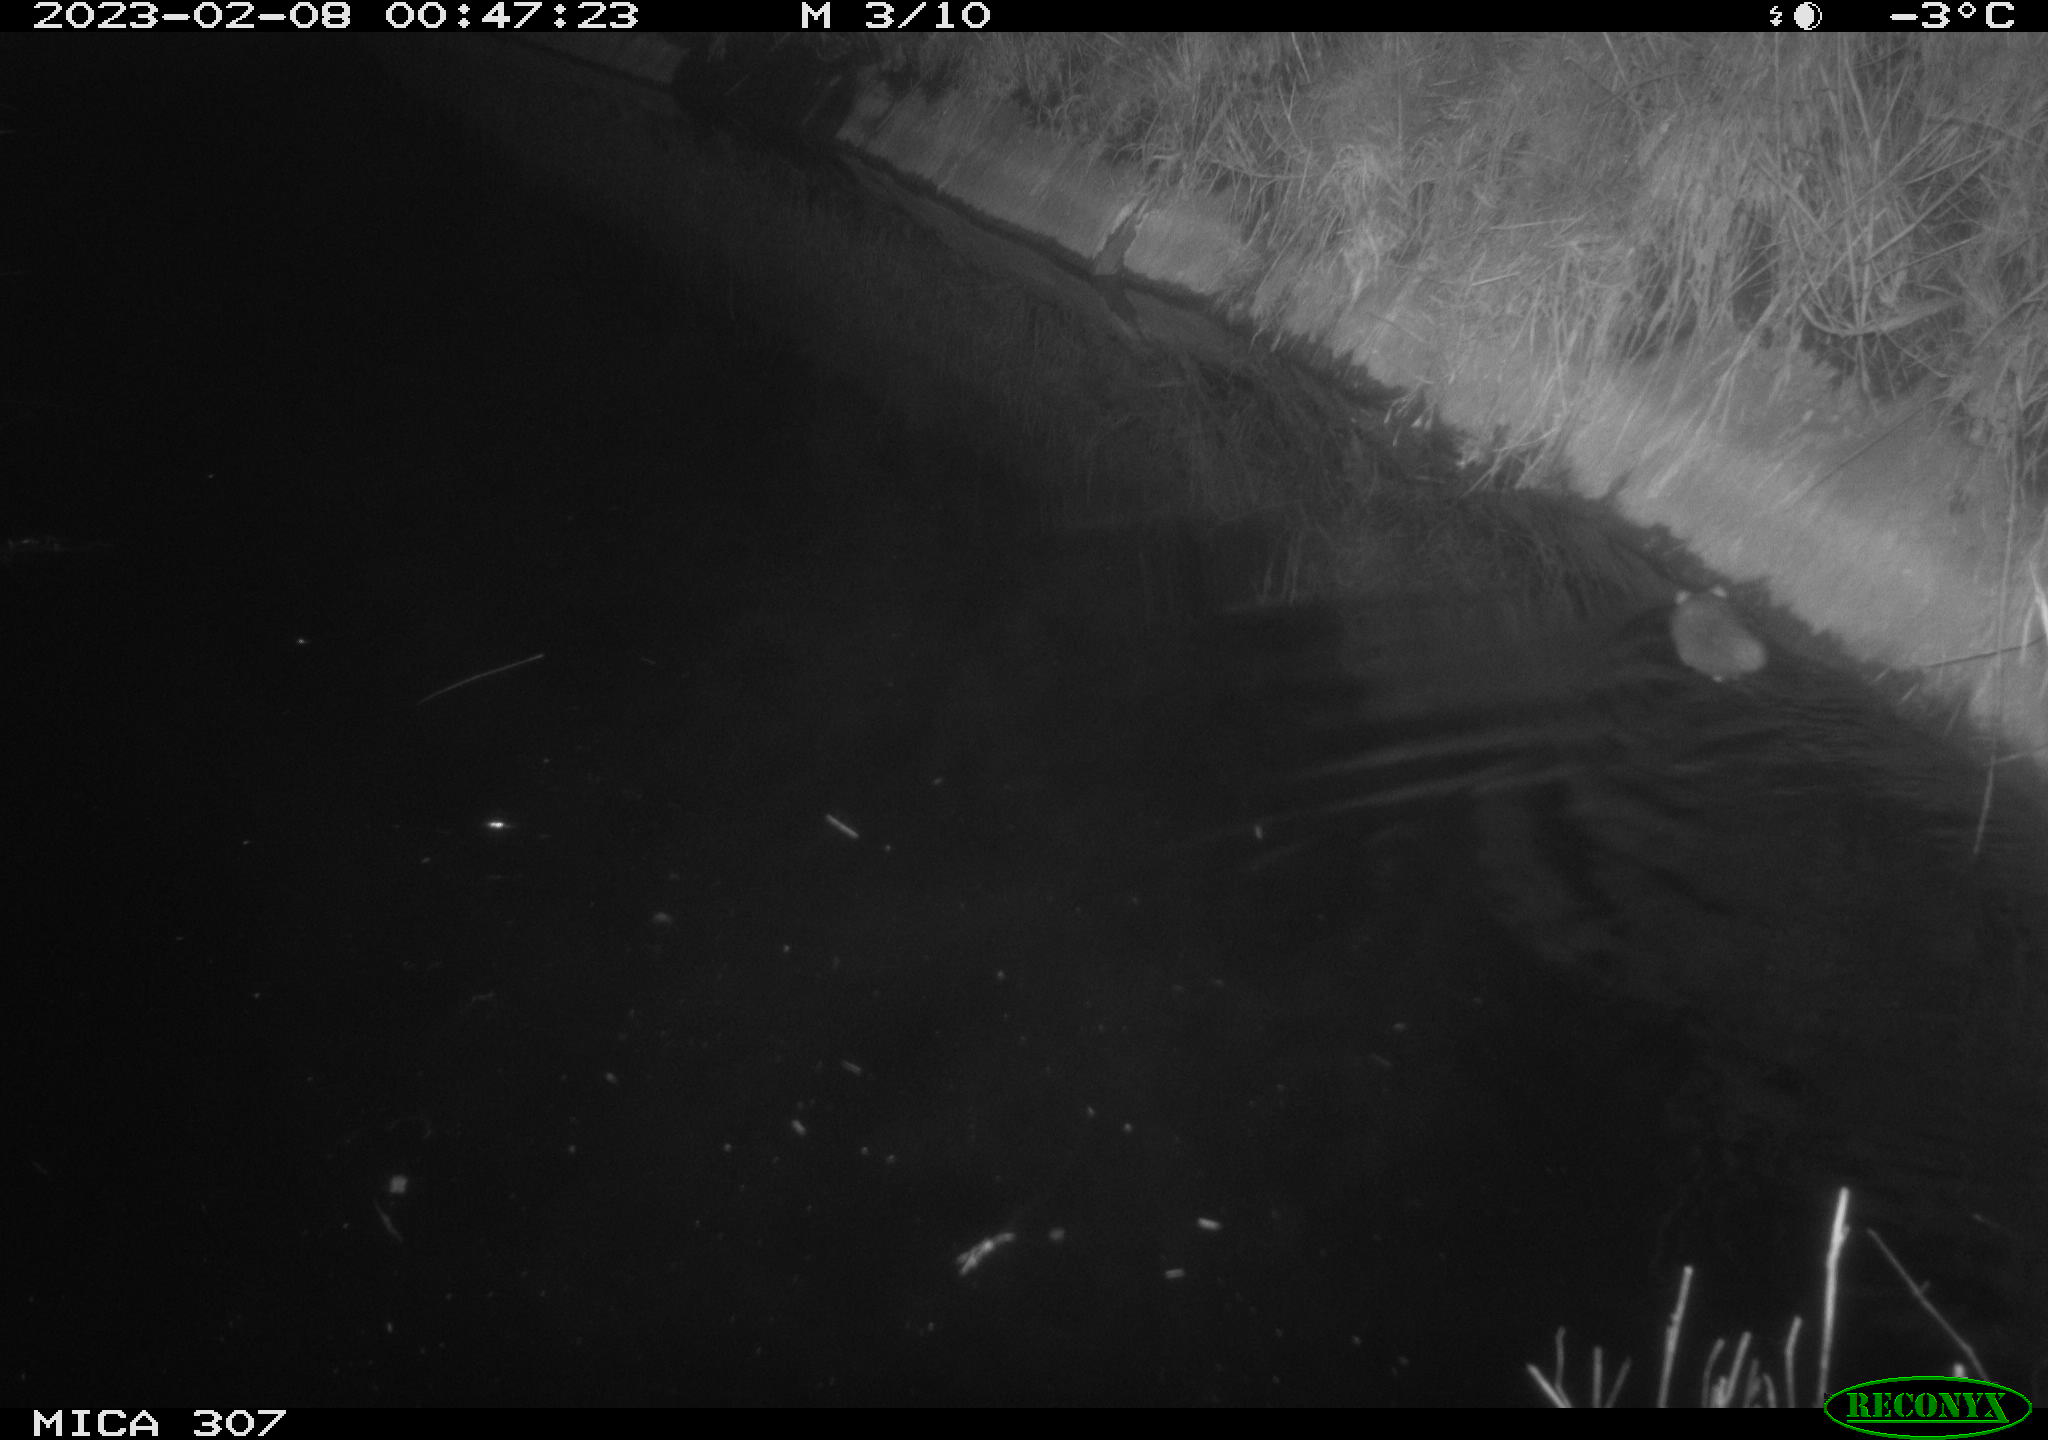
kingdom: Animalia
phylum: Chordata
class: Mammalia
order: Rodentia
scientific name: Rodentia
